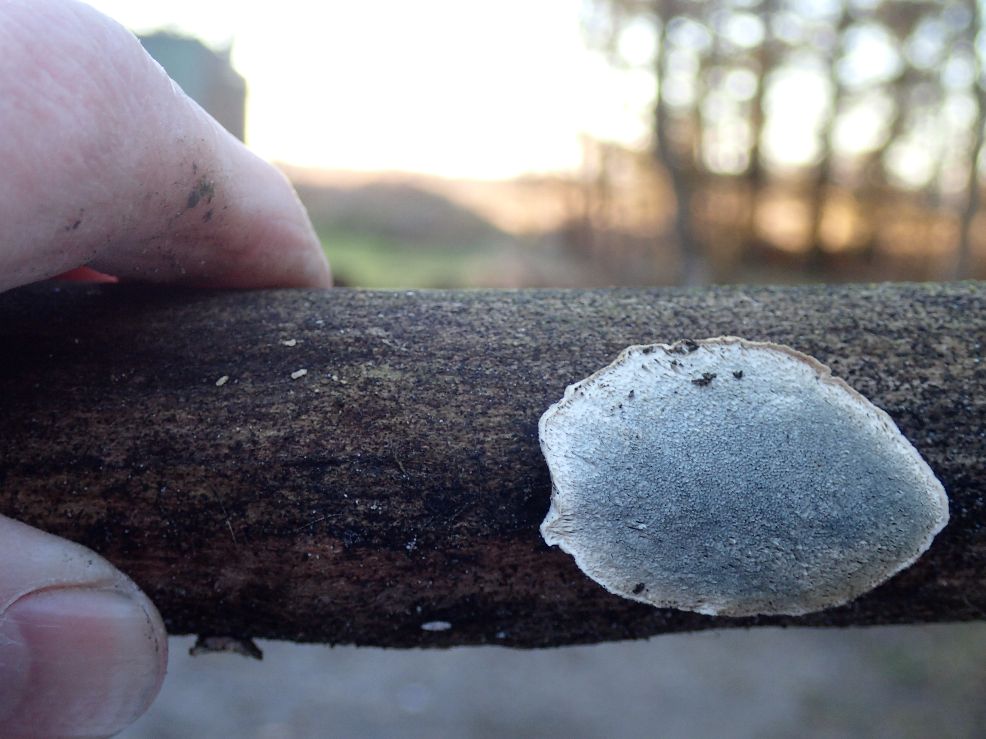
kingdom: Fungi
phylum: Basidiomycota
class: Agaricomycetes
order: Polyporales
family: Polyporaceae
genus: Cyanosporus
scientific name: Cyanosporus alni
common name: blegblå kødporesvamp
